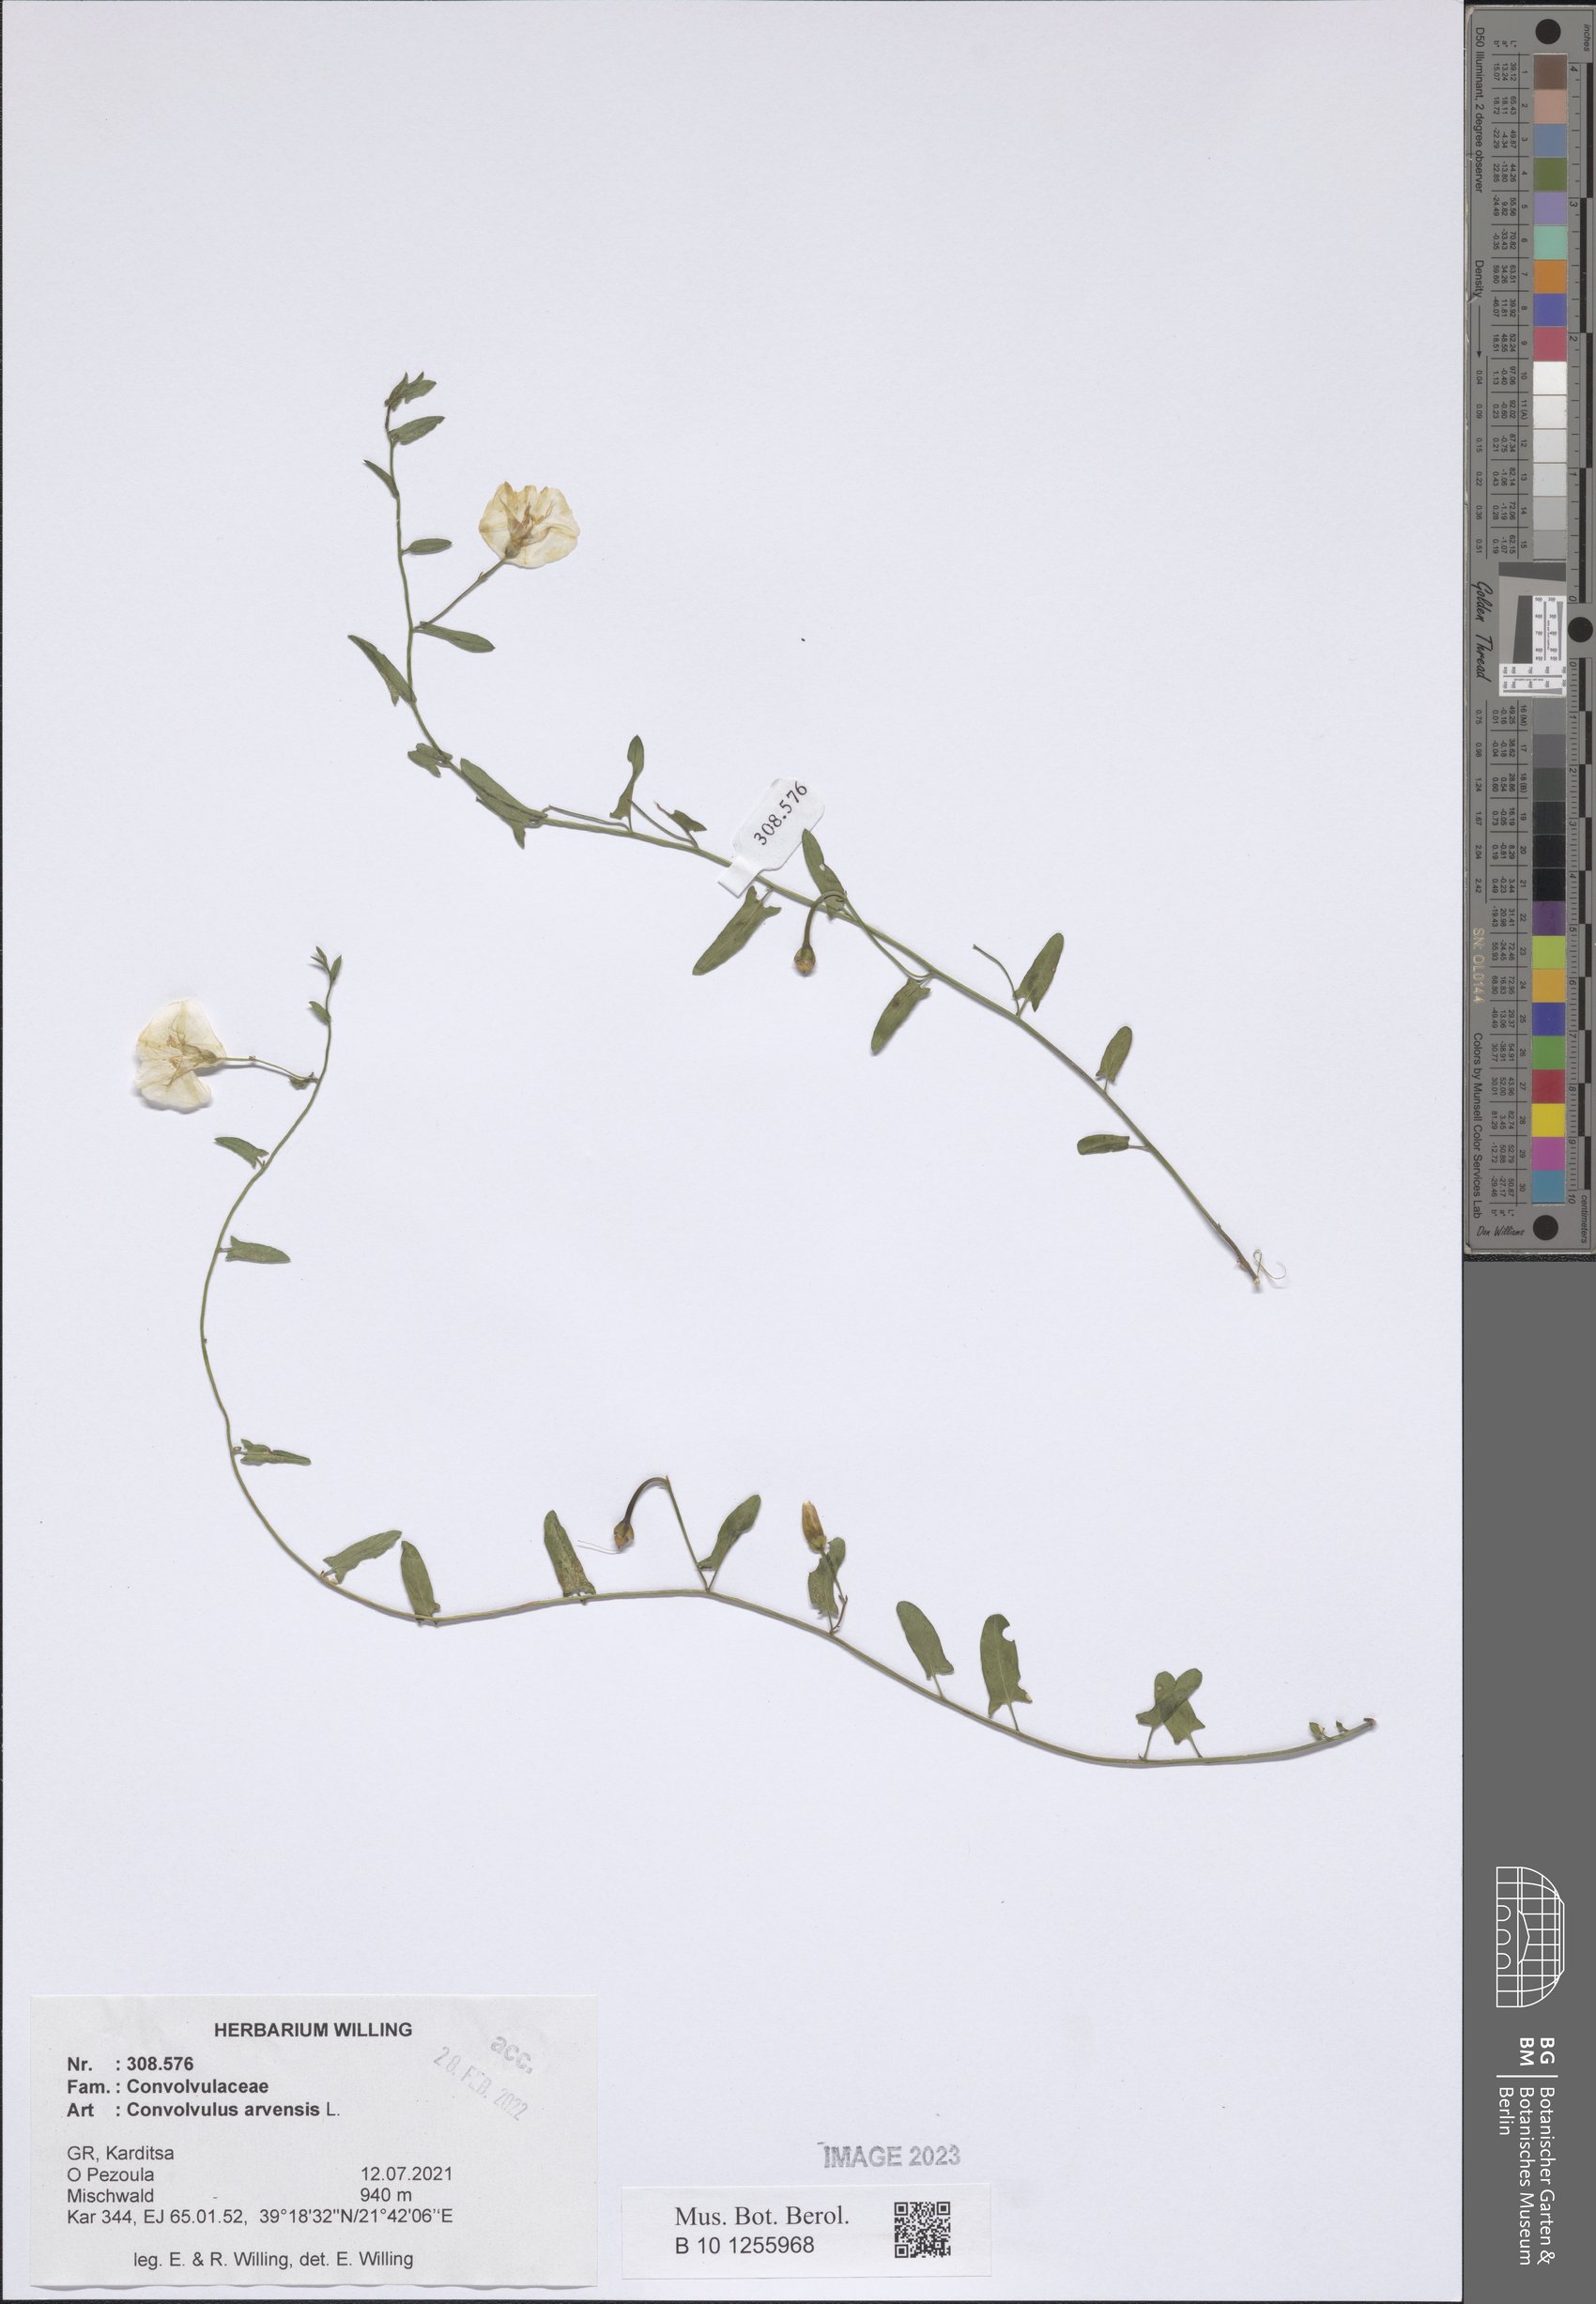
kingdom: Plantae
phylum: Tracheophyta
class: Magnoliopsida
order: Solanales
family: Convolvulaceae
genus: Convolvulus
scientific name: Convolvulus arvensis
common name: Field bindweed
